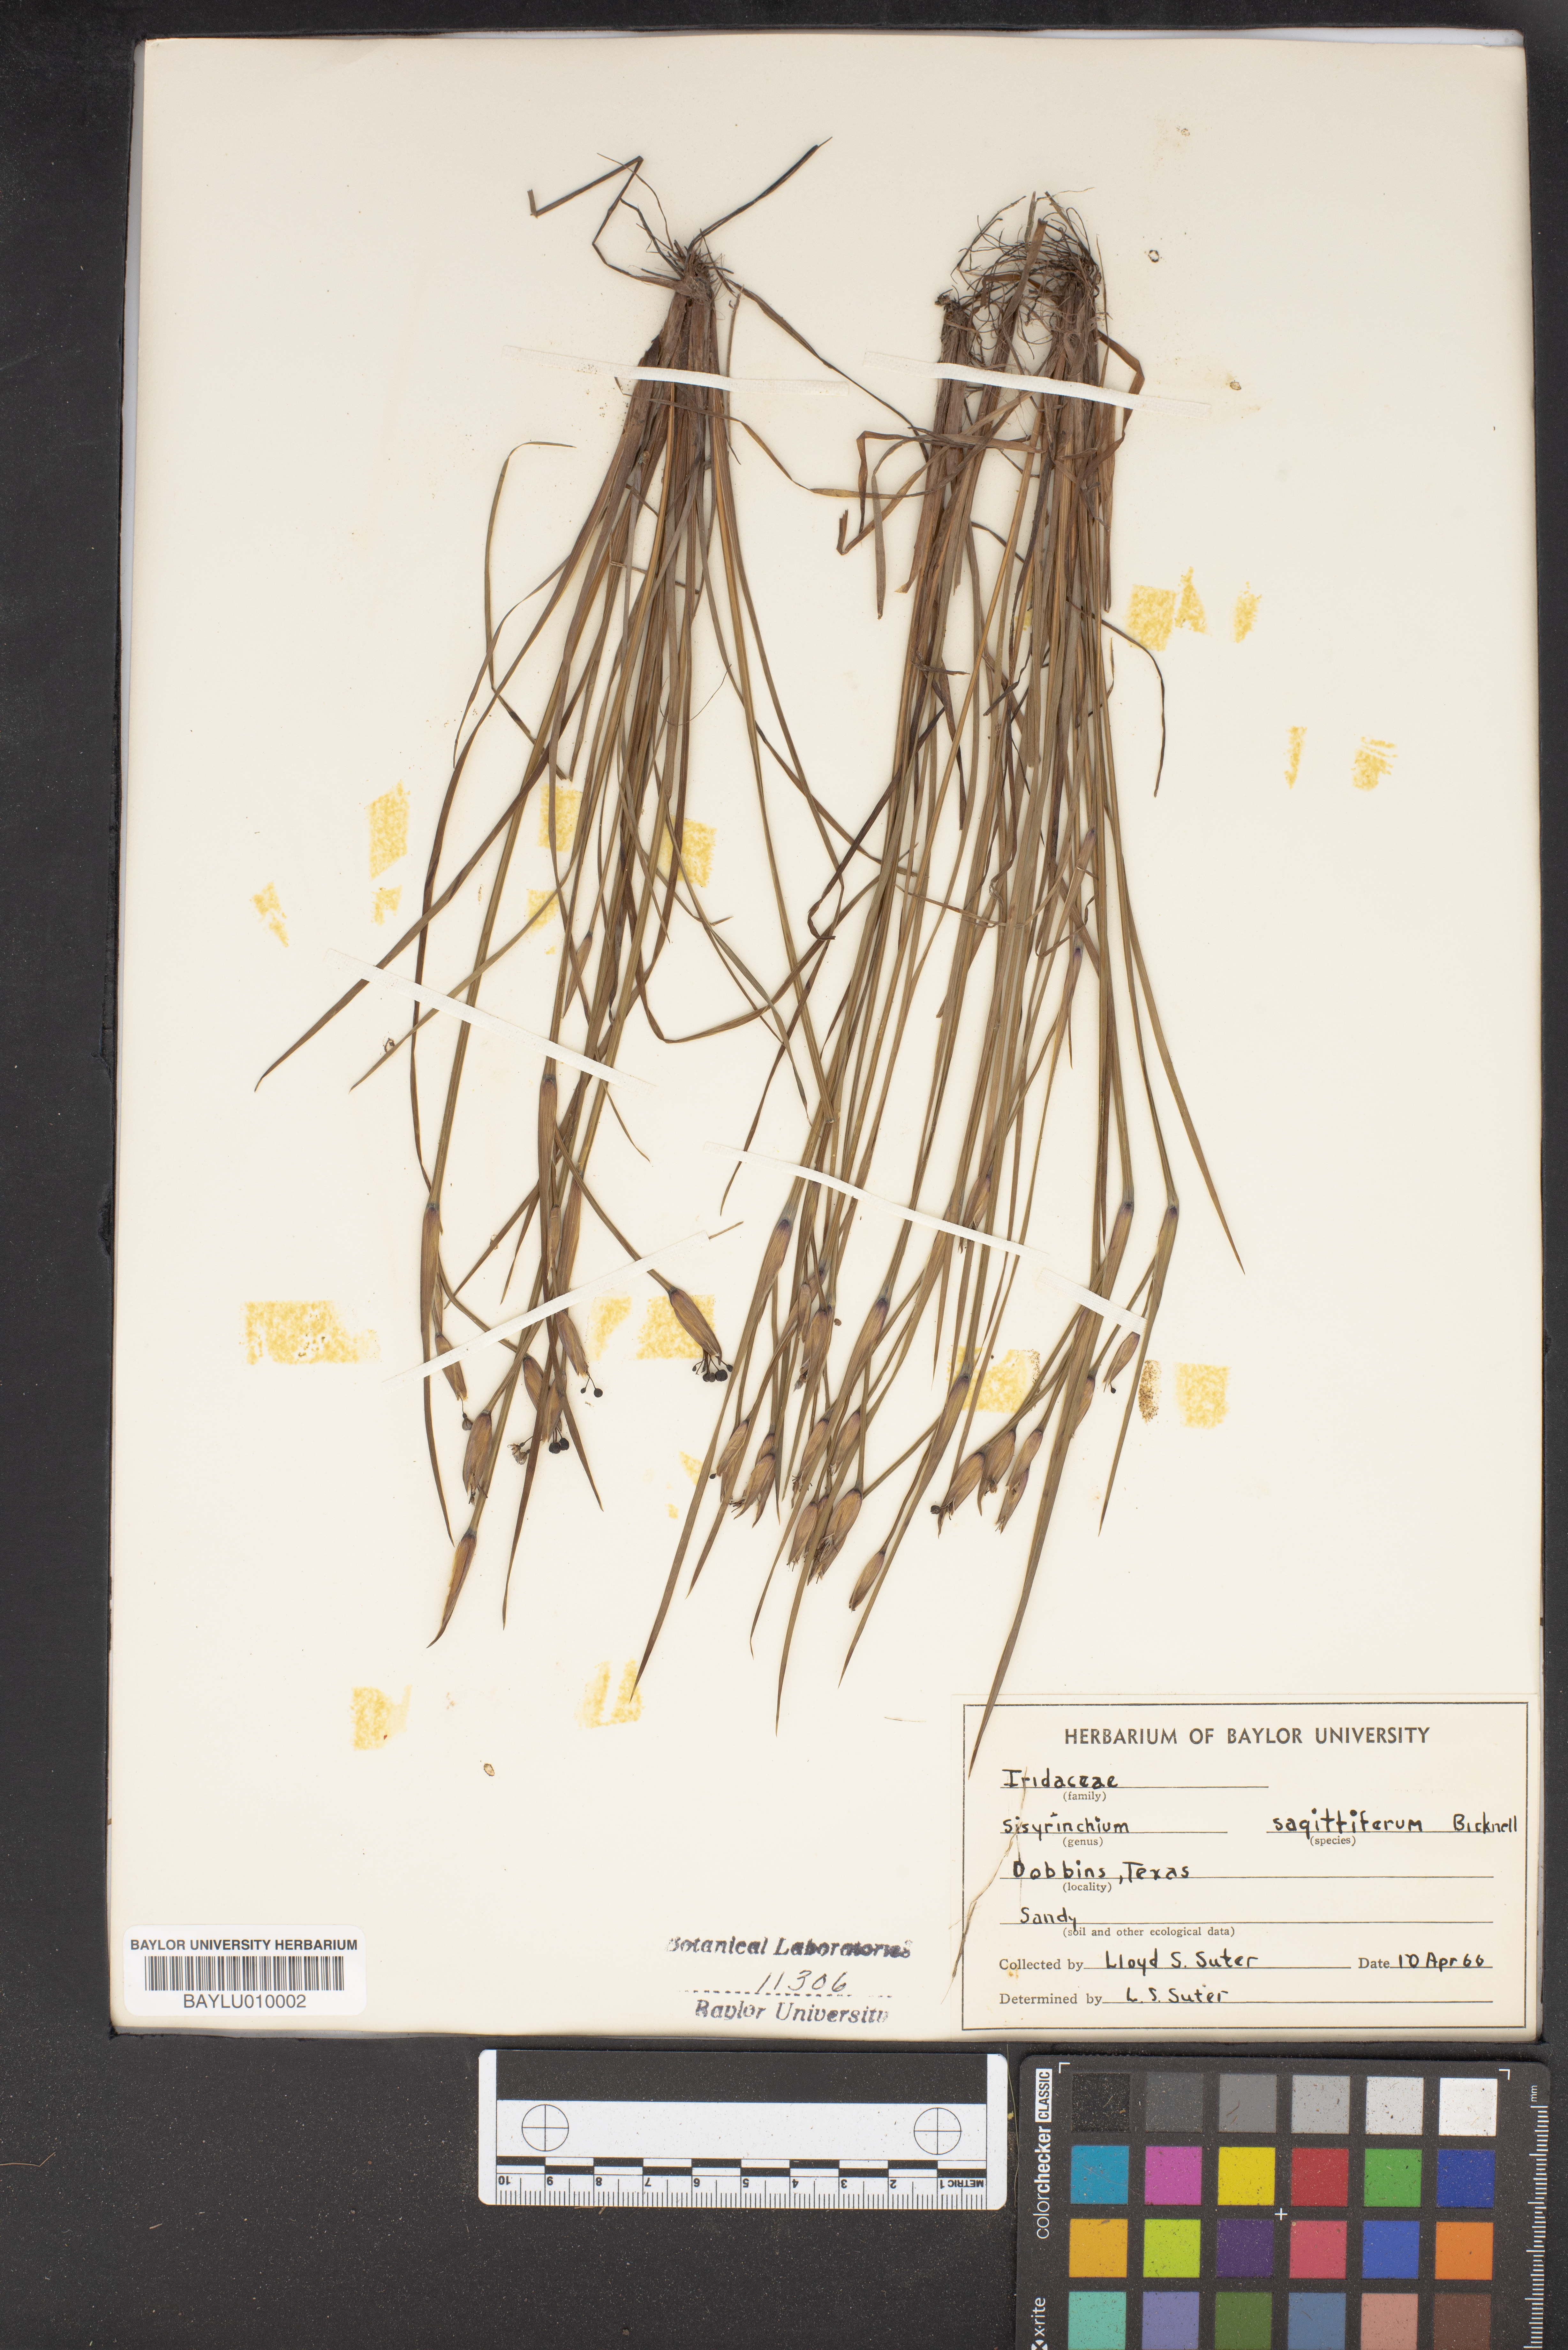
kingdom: Plantae
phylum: Tracheophyta
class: Liliopsida
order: Asparagales
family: Iridaceae
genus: Sisyrinchium
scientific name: Sisyrinchium sagittiferum
